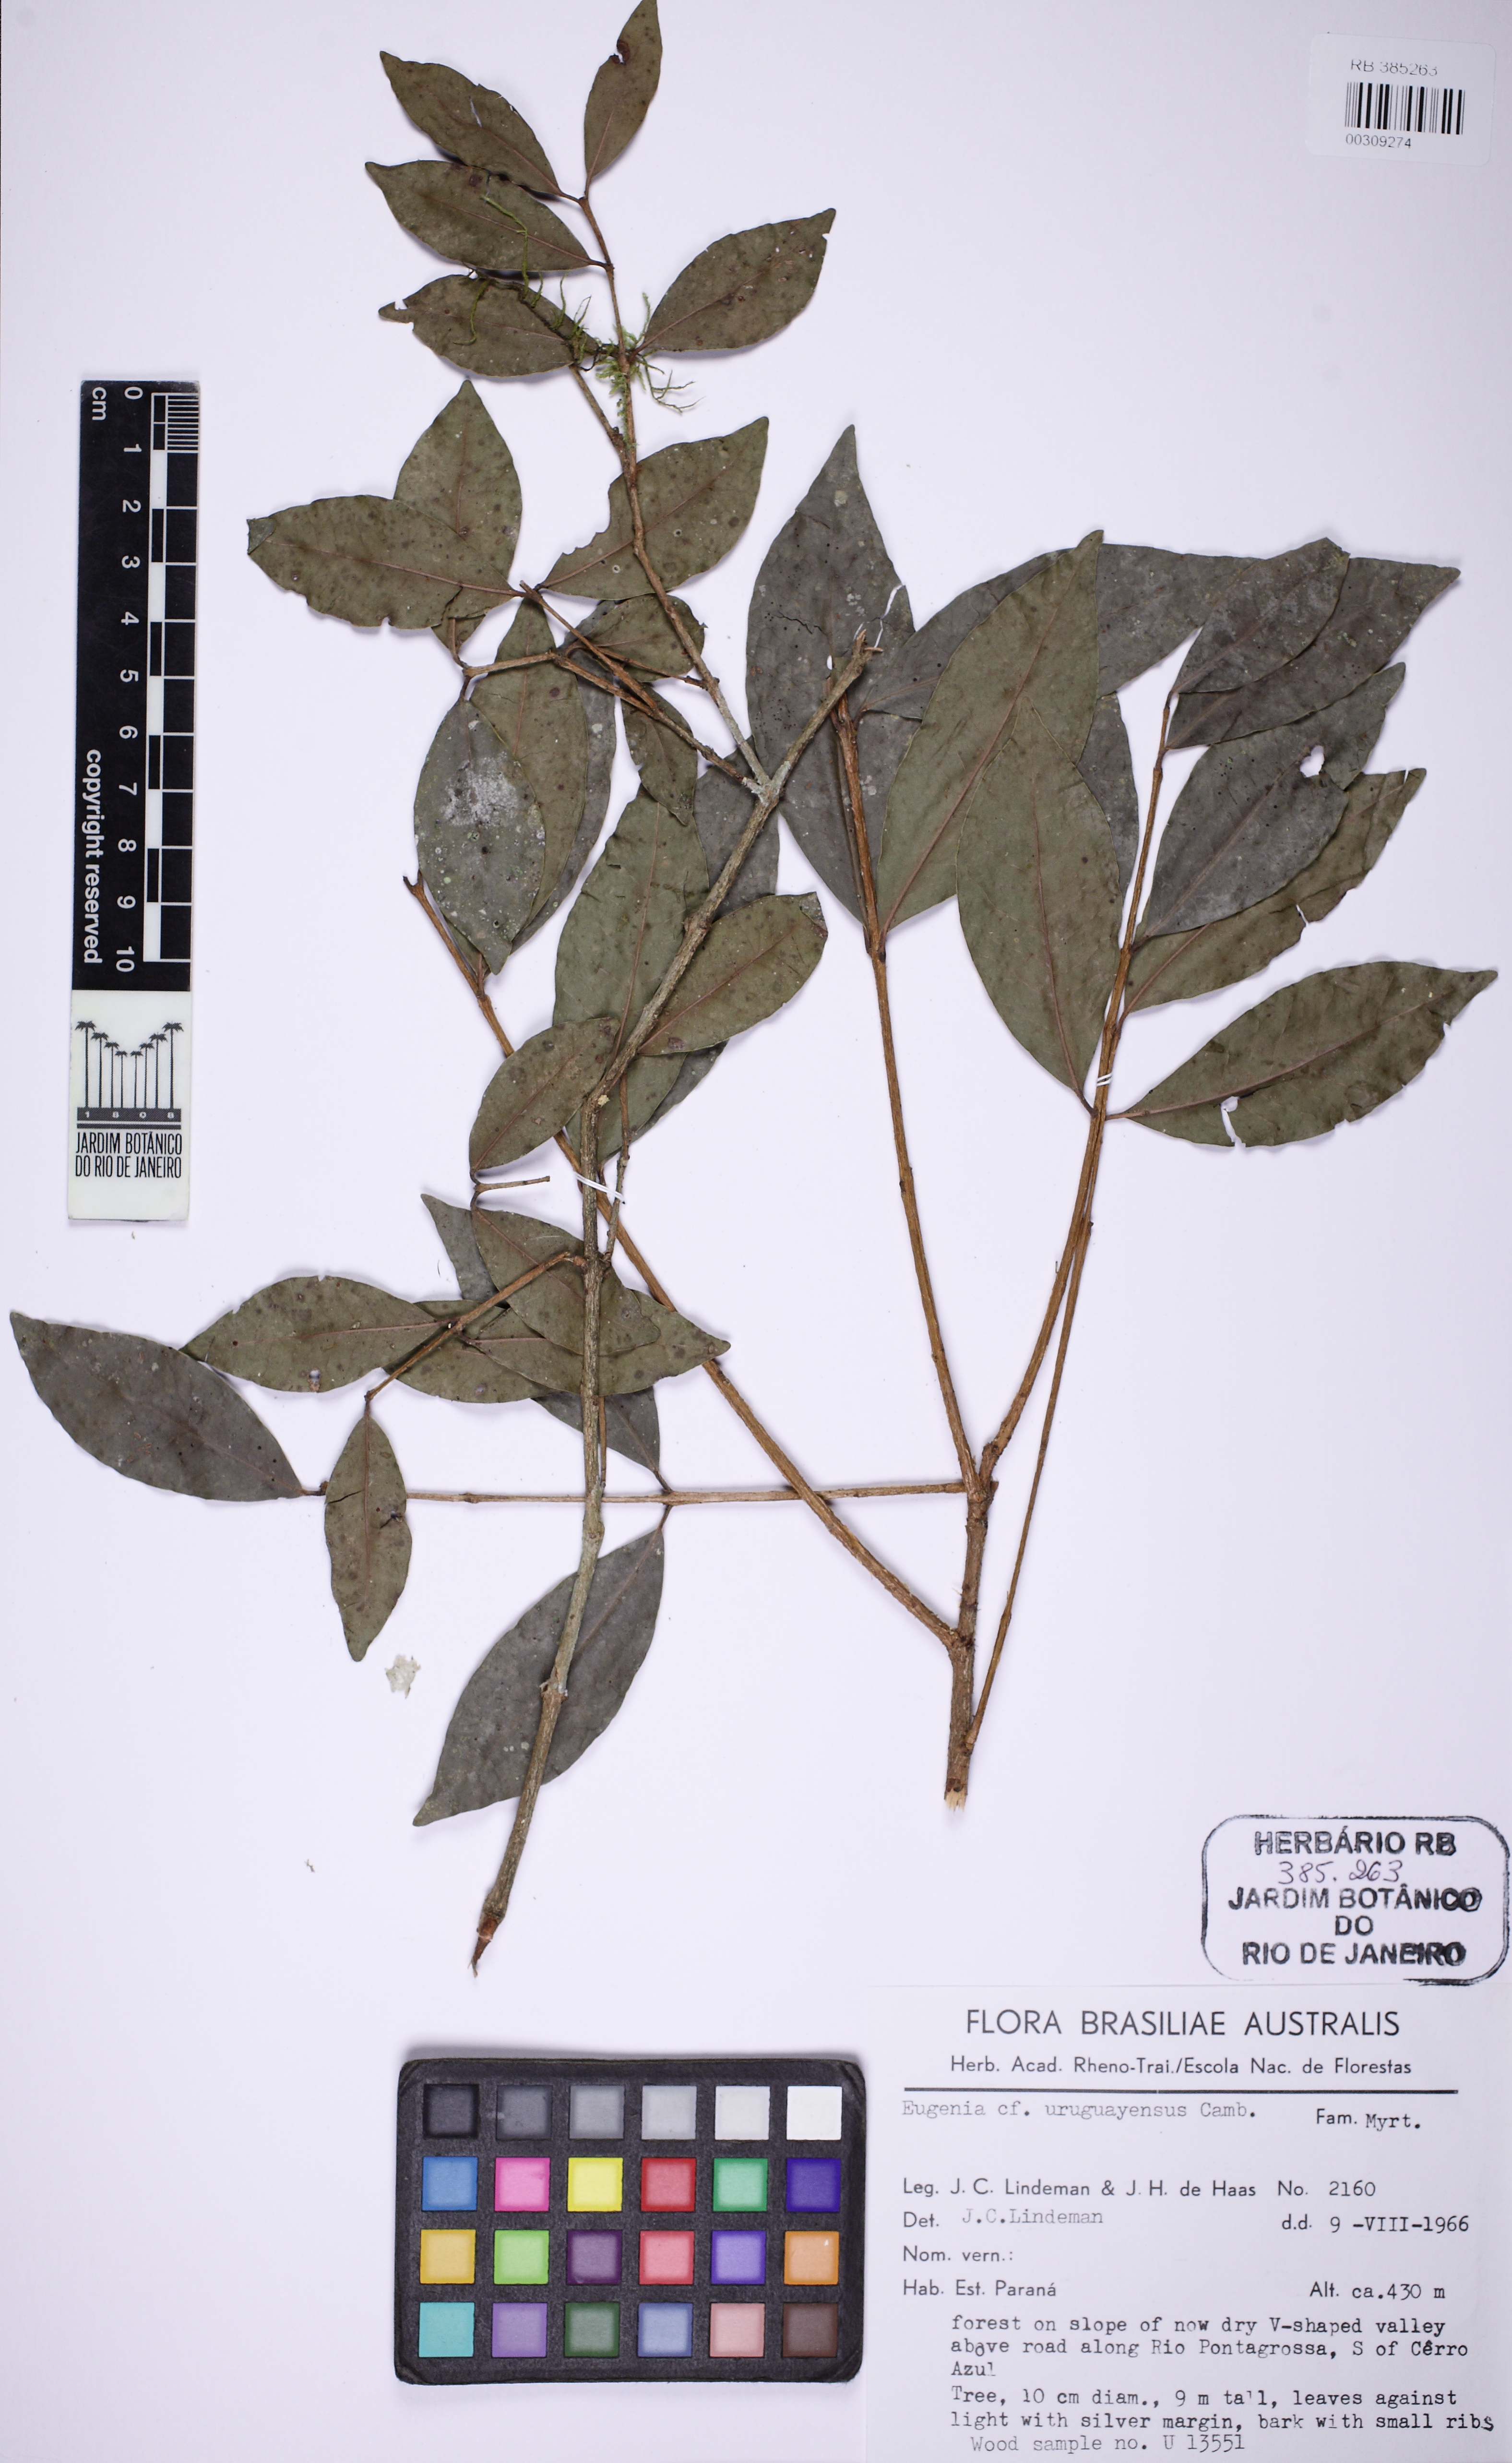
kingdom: Plantae
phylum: Tracheophyta
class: Magnoliopsida
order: Myrtales
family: Myrtaceae
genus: Eugenia
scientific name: Eugenia uruguayensis
